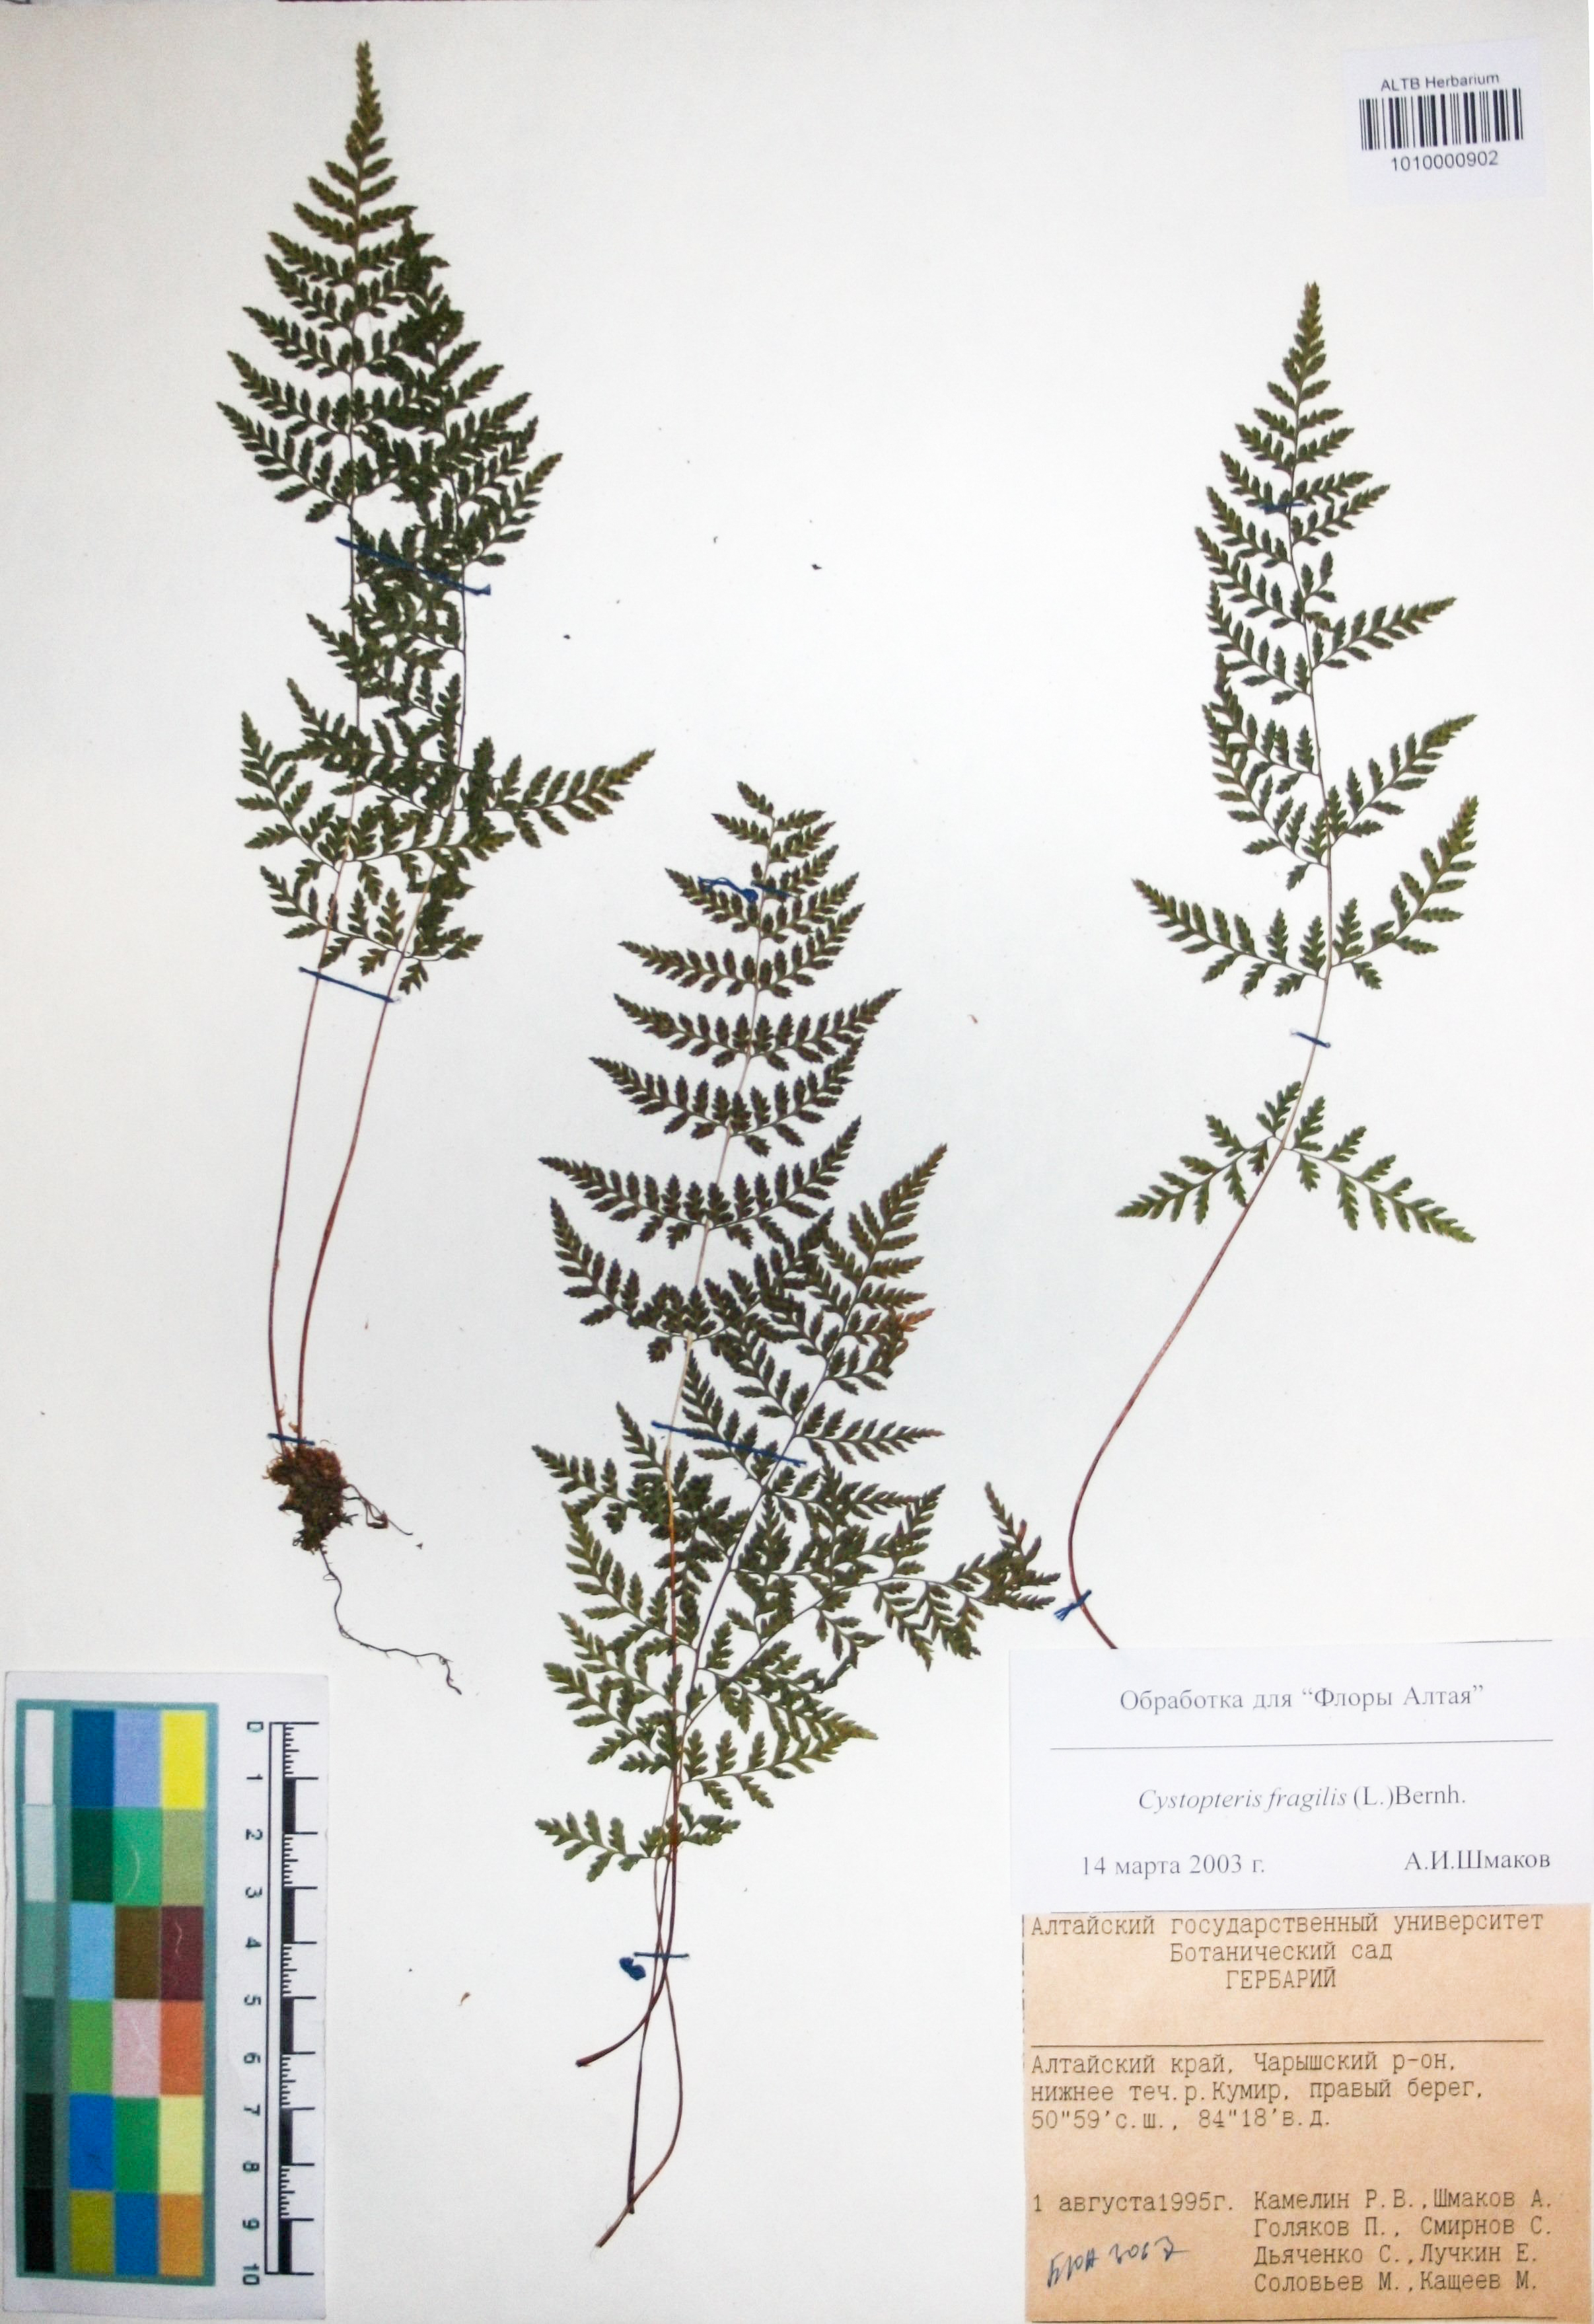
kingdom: Plantae
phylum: Tracheophyta
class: Polypodiopsida
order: Polypodiales
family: Cystopteridaceae
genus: Cystopteris
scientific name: Cystopteris fragilis
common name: Brittle bladder fern
